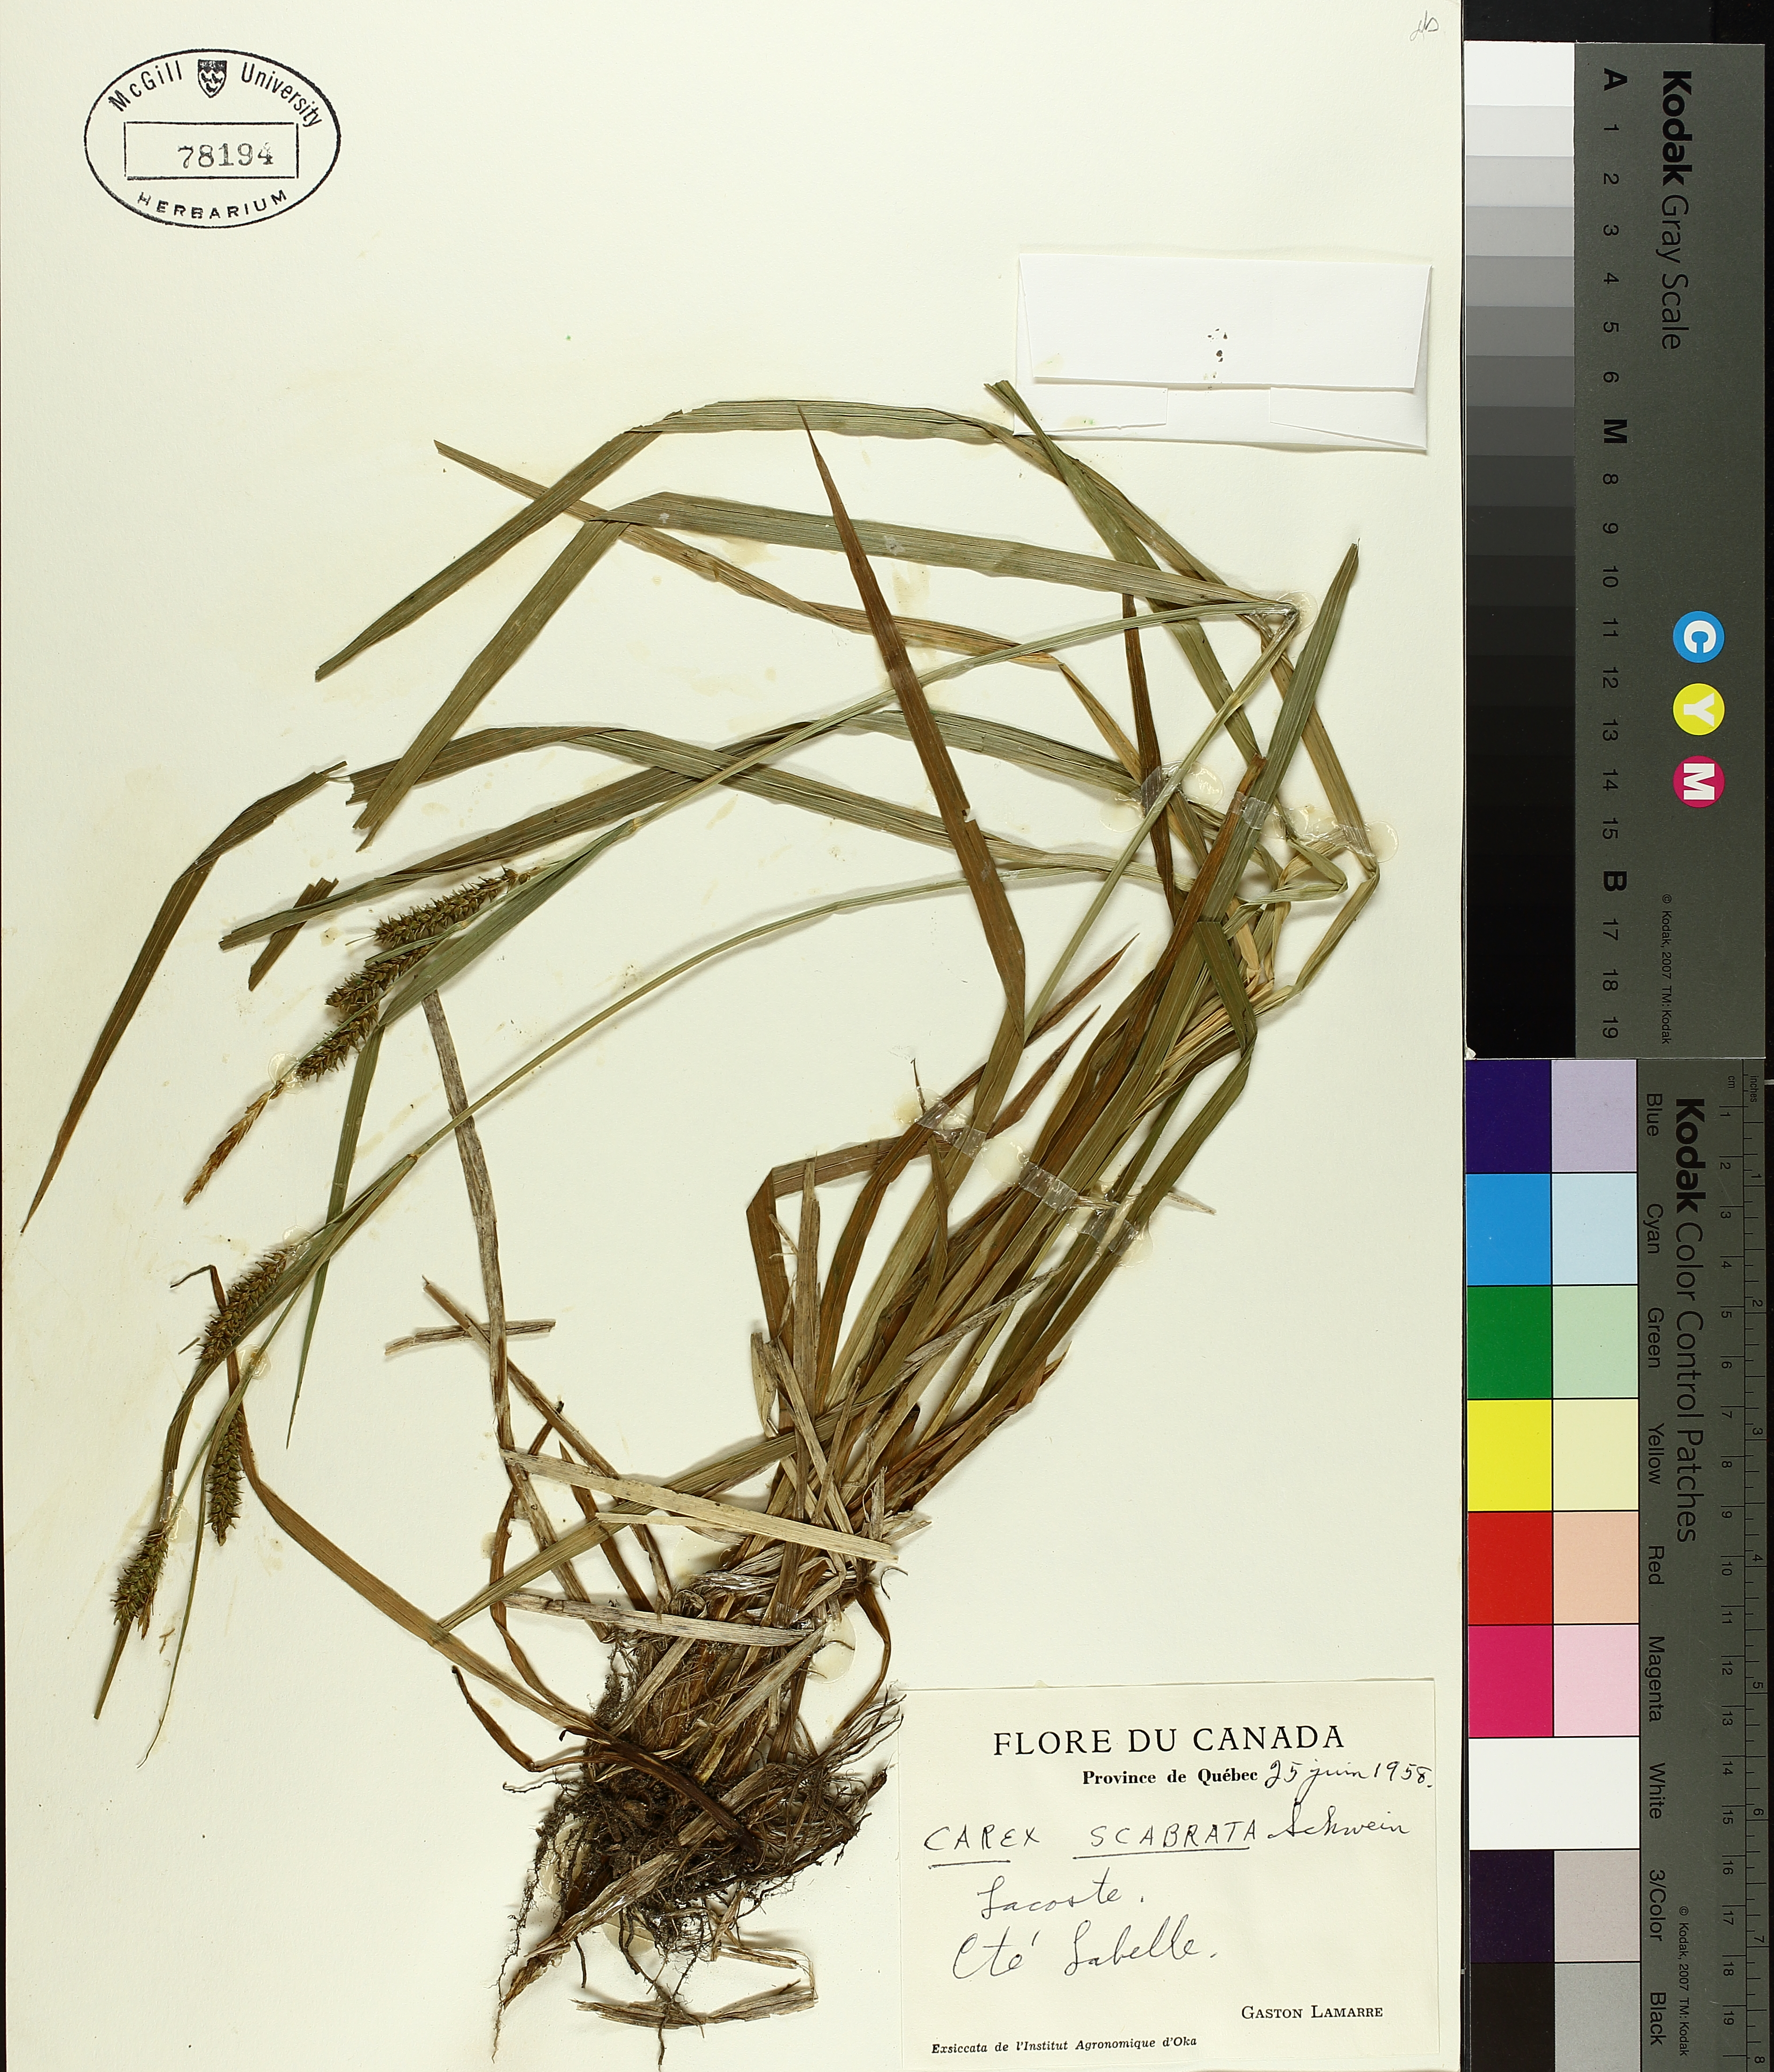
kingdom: Plantae
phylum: Tracheophyta
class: Liliopsida
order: Poales
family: Cyperaceae
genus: Carex
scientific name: Carex saxatilis
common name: Russet sedge
